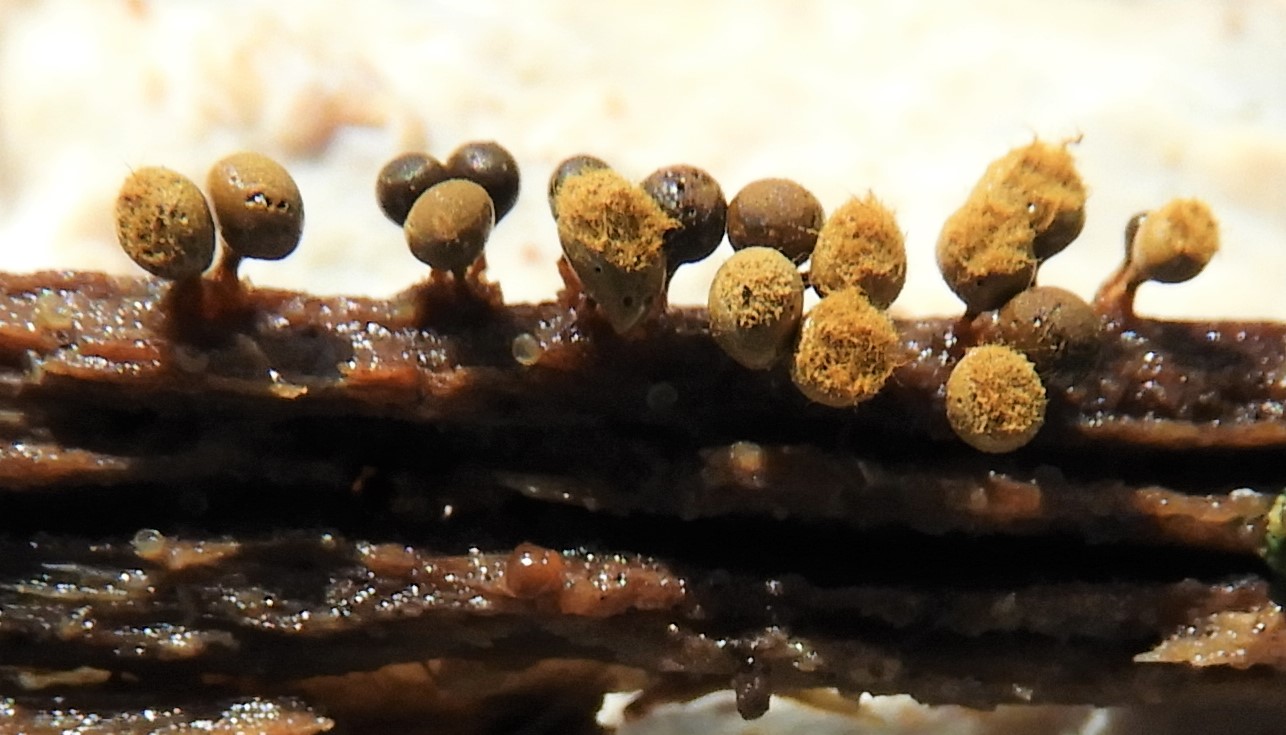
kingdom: Protozoa
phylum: Mycetozoa
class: Myxomycetes
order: Trichiales
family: Trichiaceae
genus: Trichia
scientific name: Trichia
